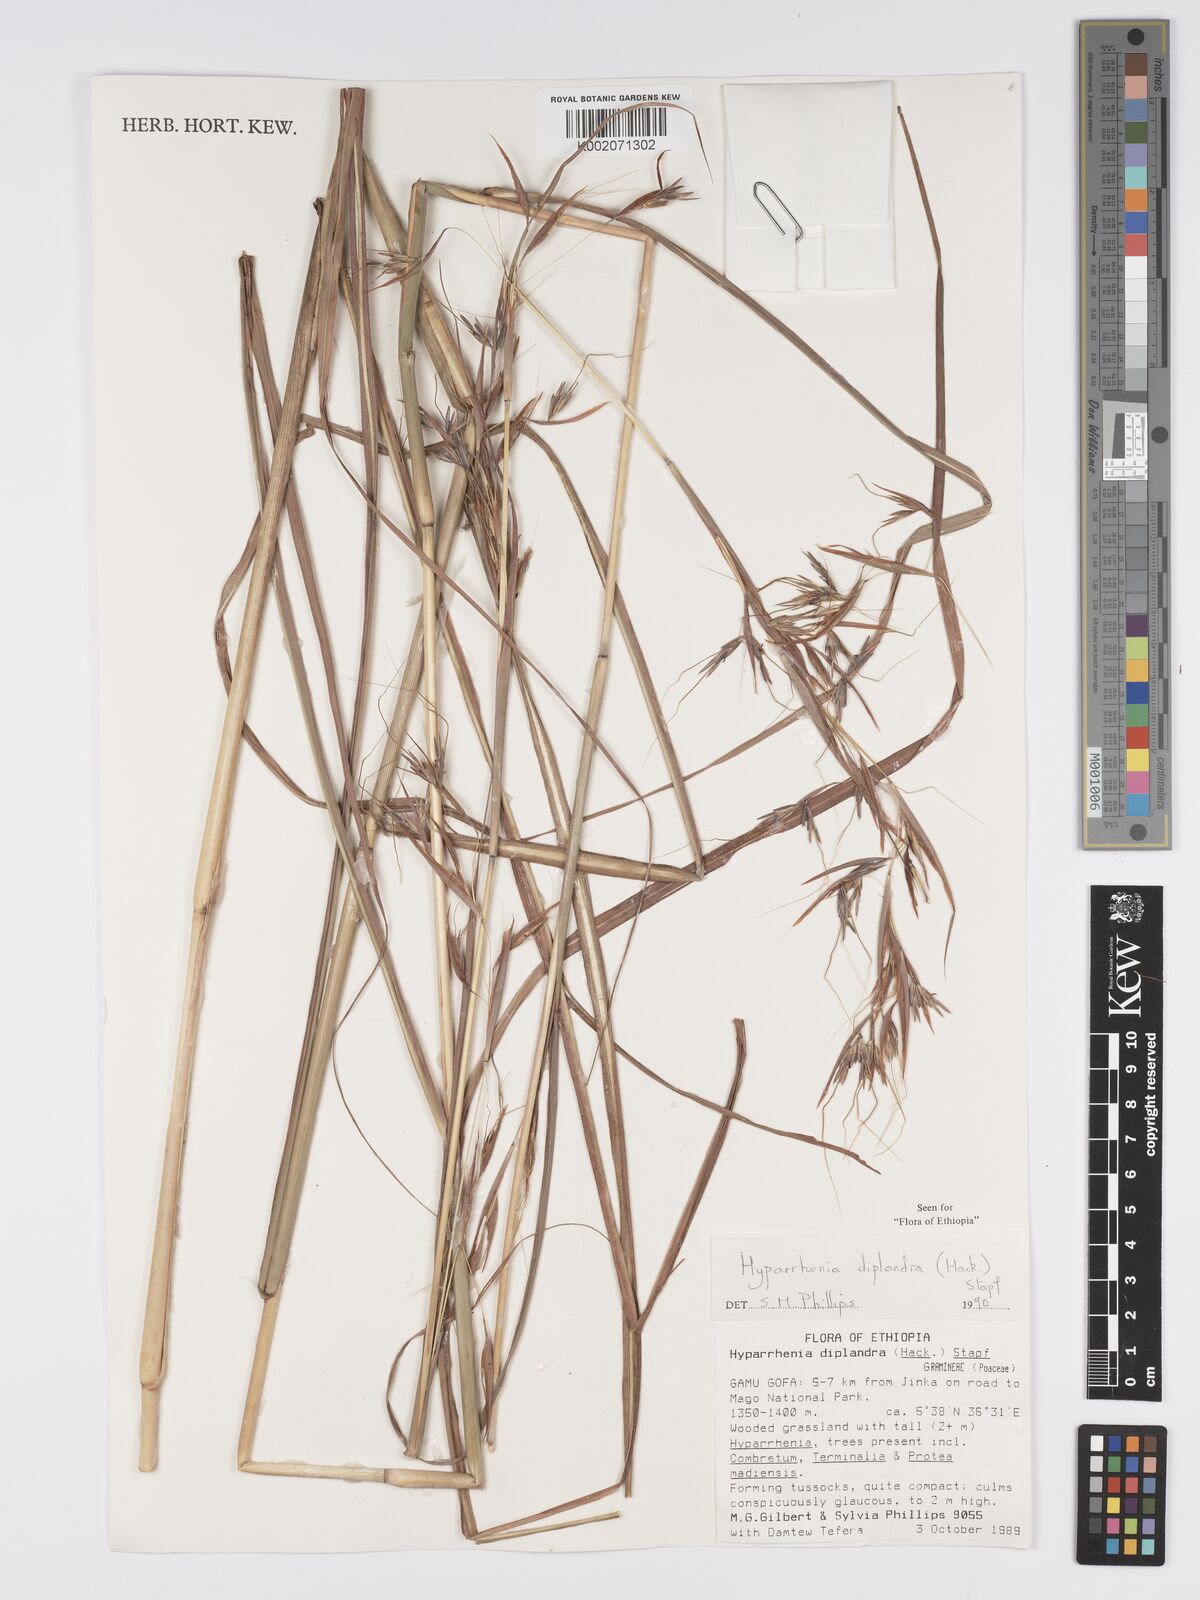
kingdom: Plantae
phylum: Tracheophyta
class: Liliopsida
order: Poales
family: Poaceae
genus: Hyparrhenia
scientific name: Hyparrhenia diplandra
